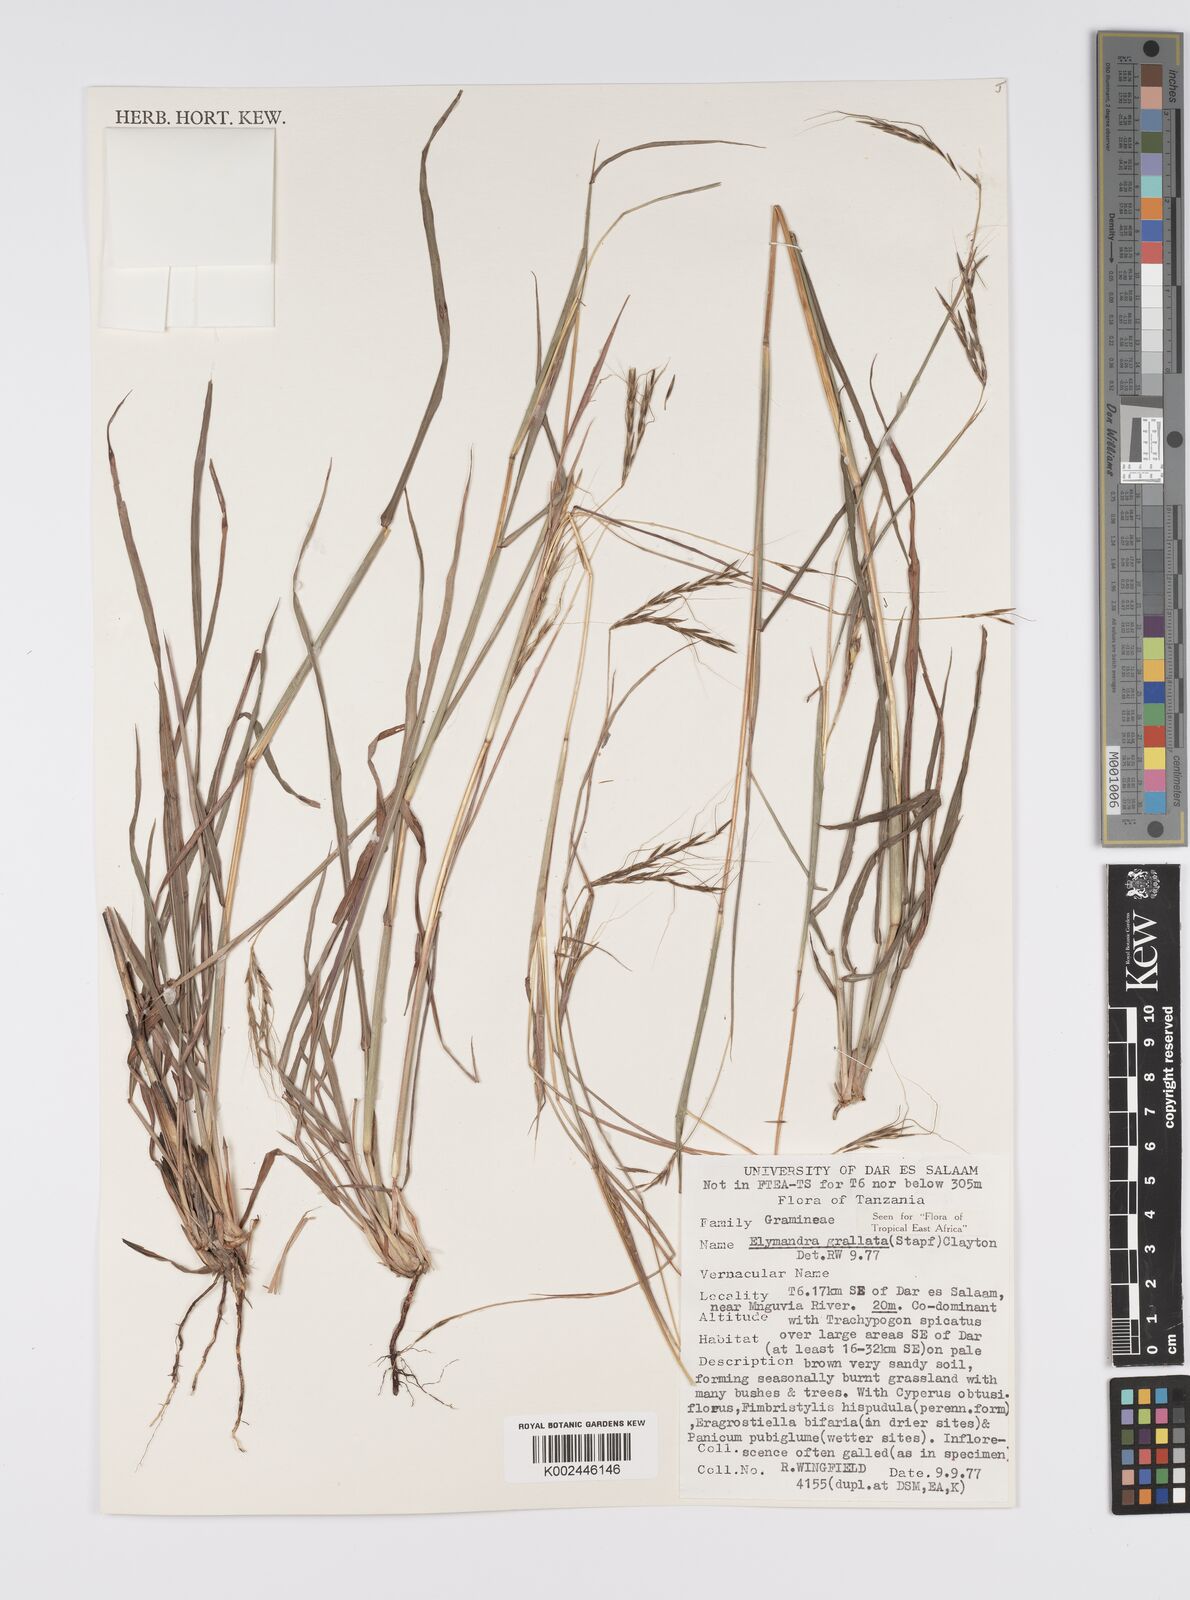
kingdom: Plantae
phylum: Tracheophyta
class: Liliopsida
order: Poales
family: Poaceae
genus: Elymandra
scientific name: Elymandra grallata
